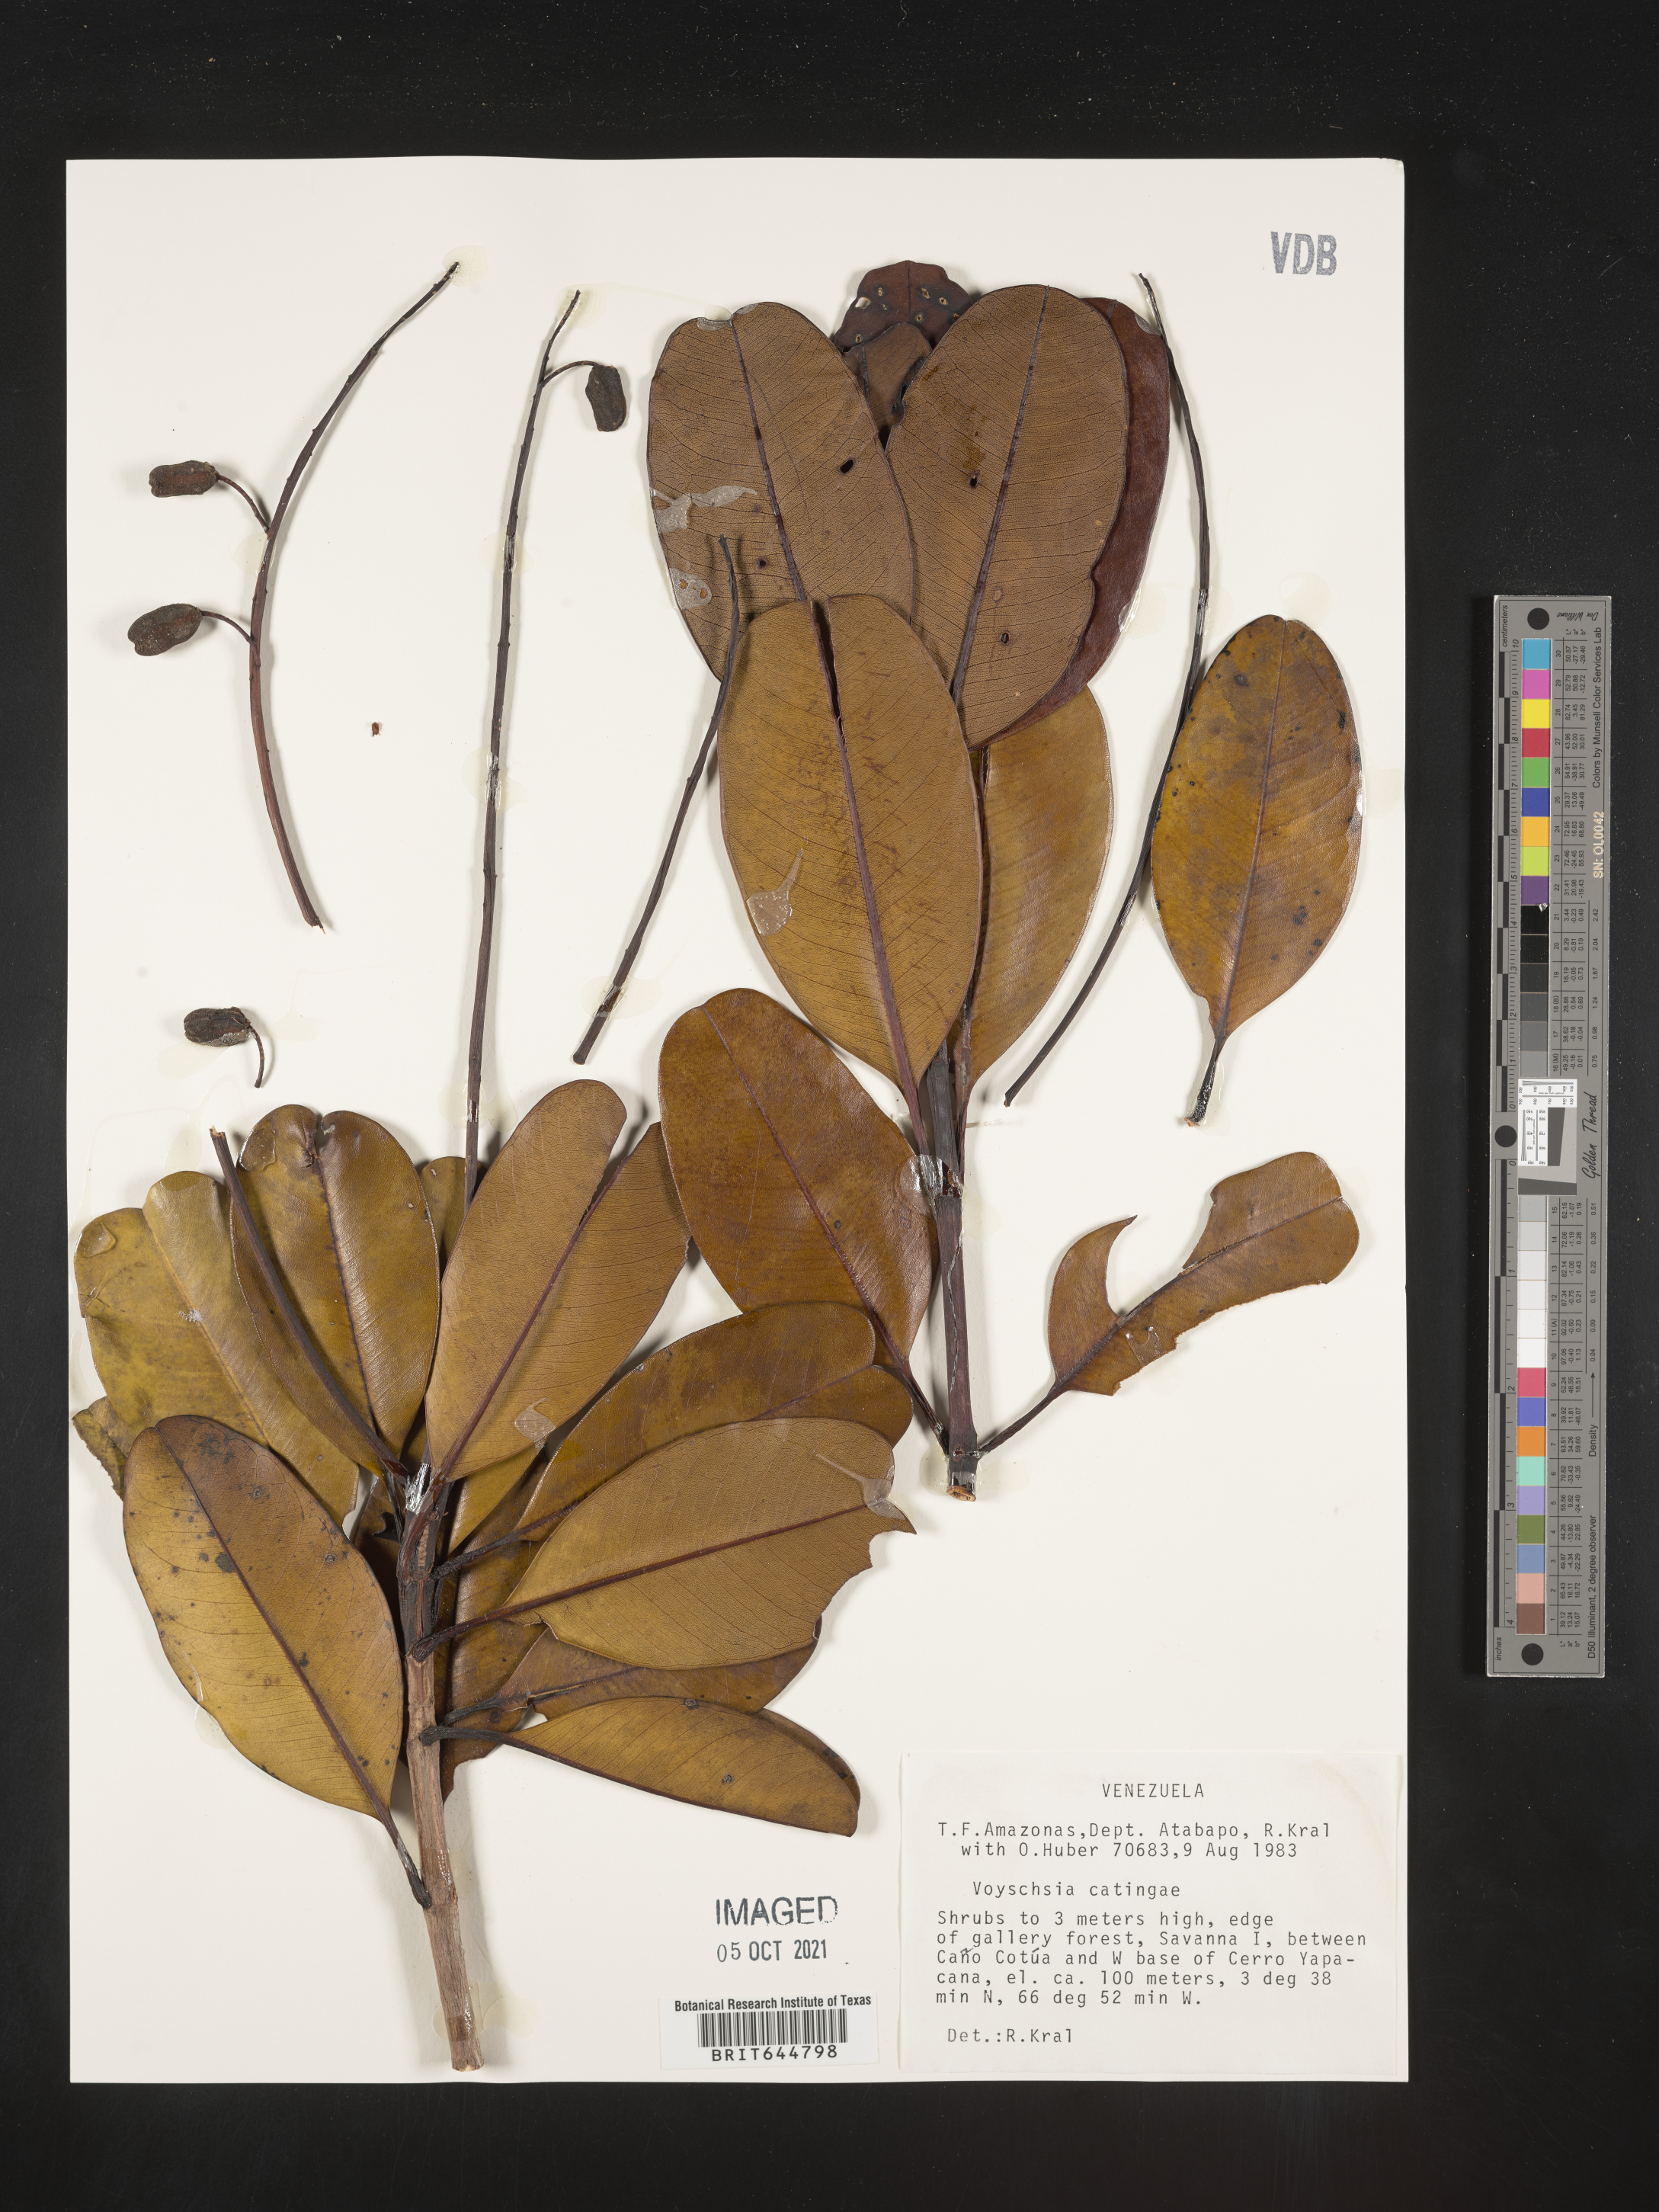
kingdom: Plantae
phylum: Tracheophyta
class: Magnoliopsida
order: Myrtales
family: Vochysiaceae
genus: Vochysia
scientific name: Vochysia
